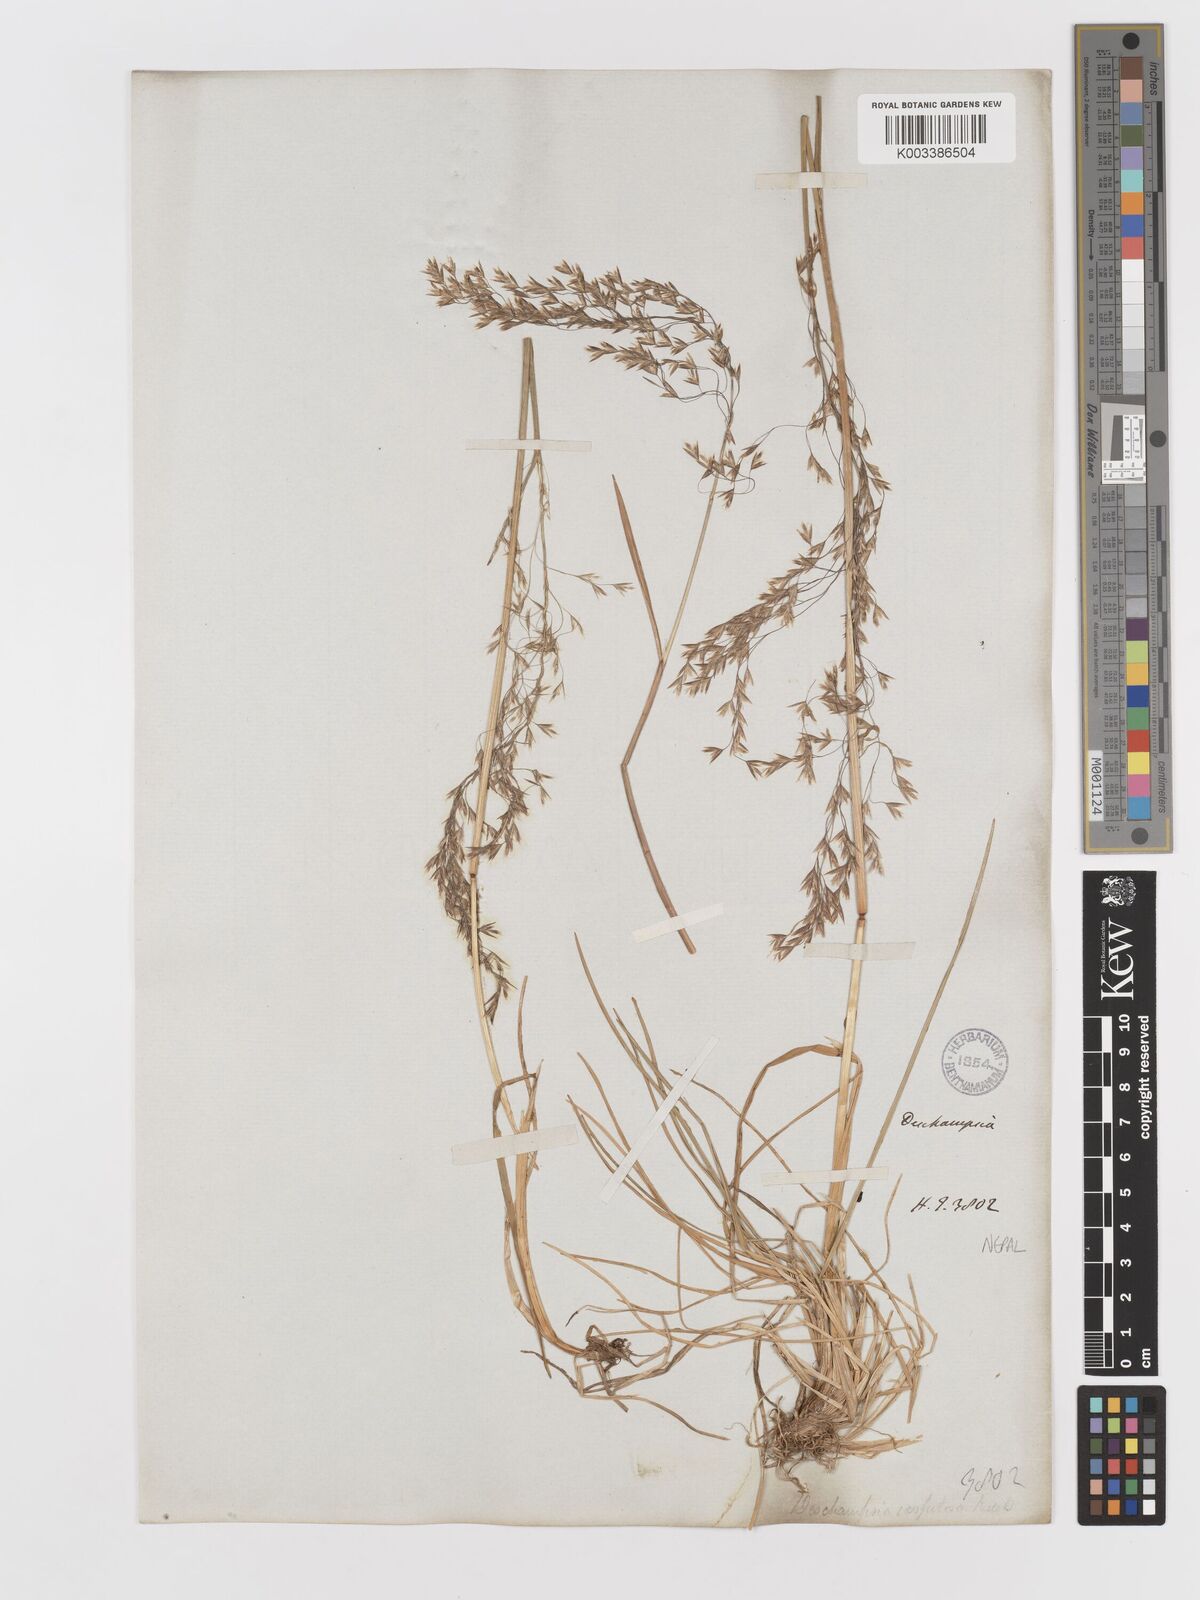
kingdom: Plantae
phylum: Tracheophyta
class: Liliopsida
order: Poales
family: Poaceae
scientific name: Poaceae
